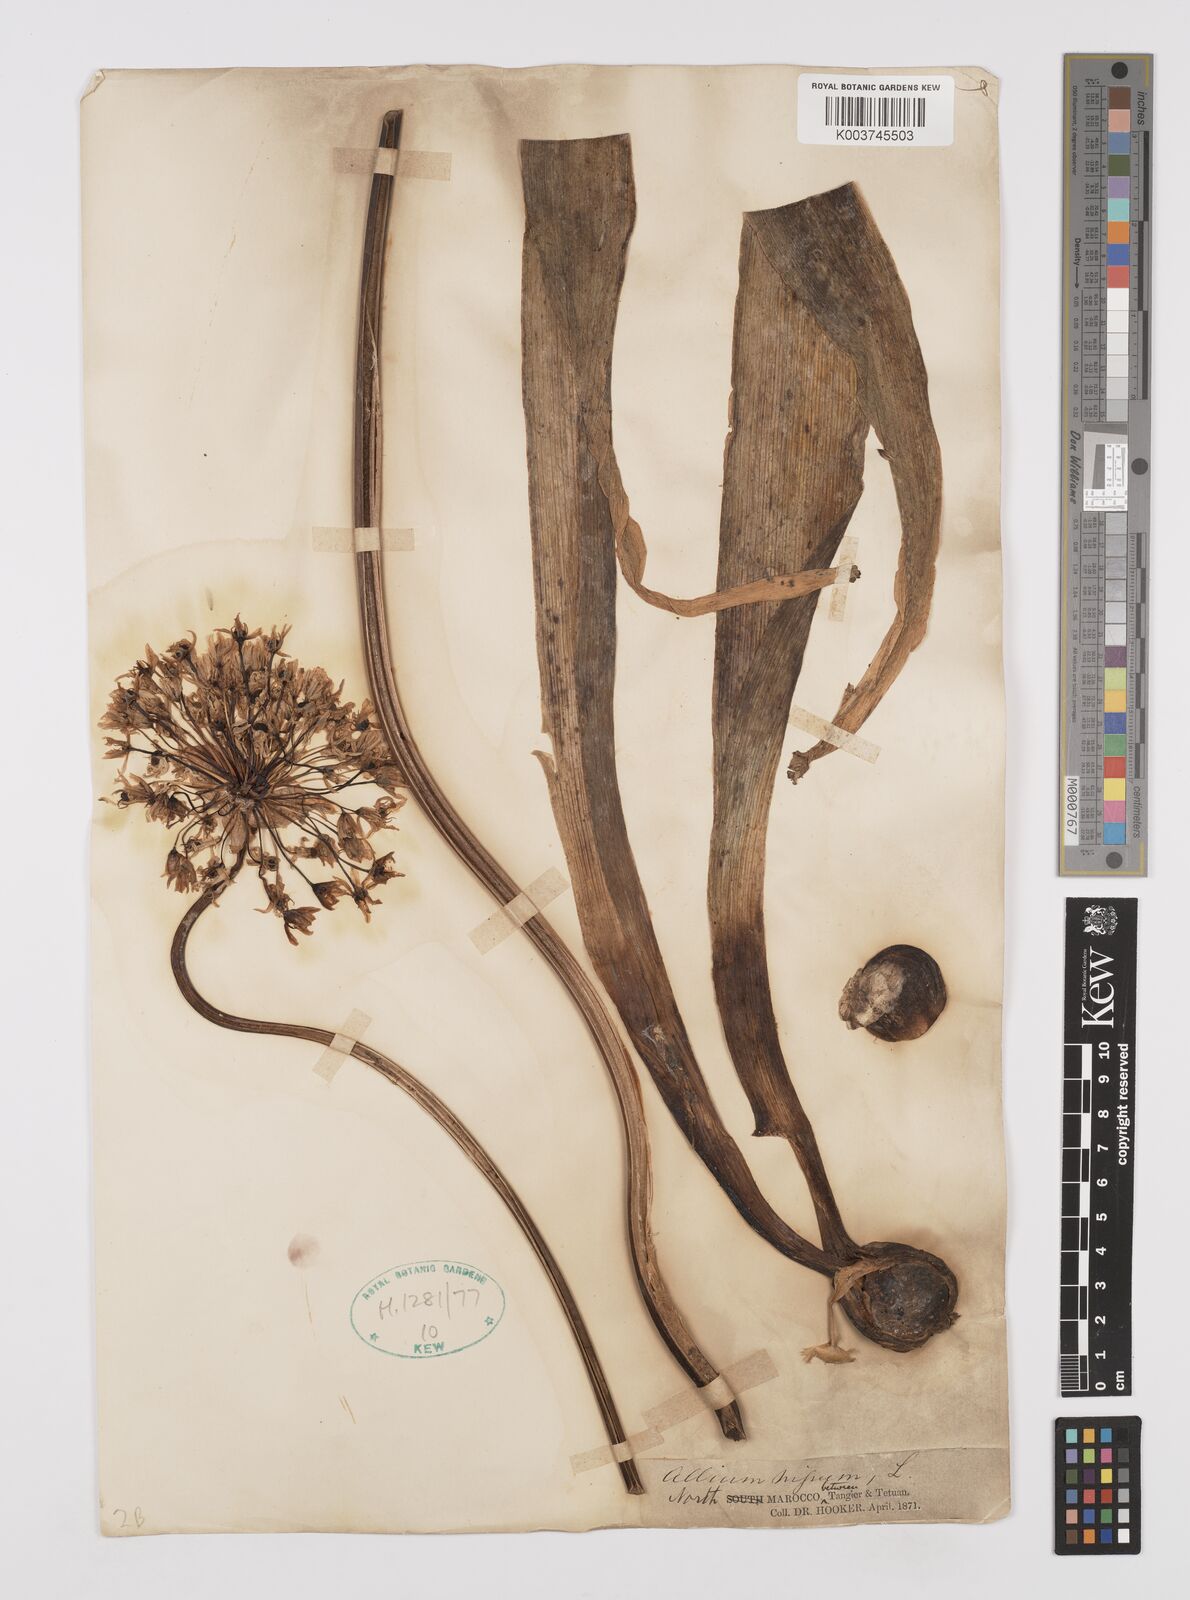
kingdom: Plantae
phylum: Tracheophyta
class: Liliopsida
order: Asparagales
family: Amaryllidaceae
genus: Allium
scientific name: Allium nigrum
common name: Black garlic
